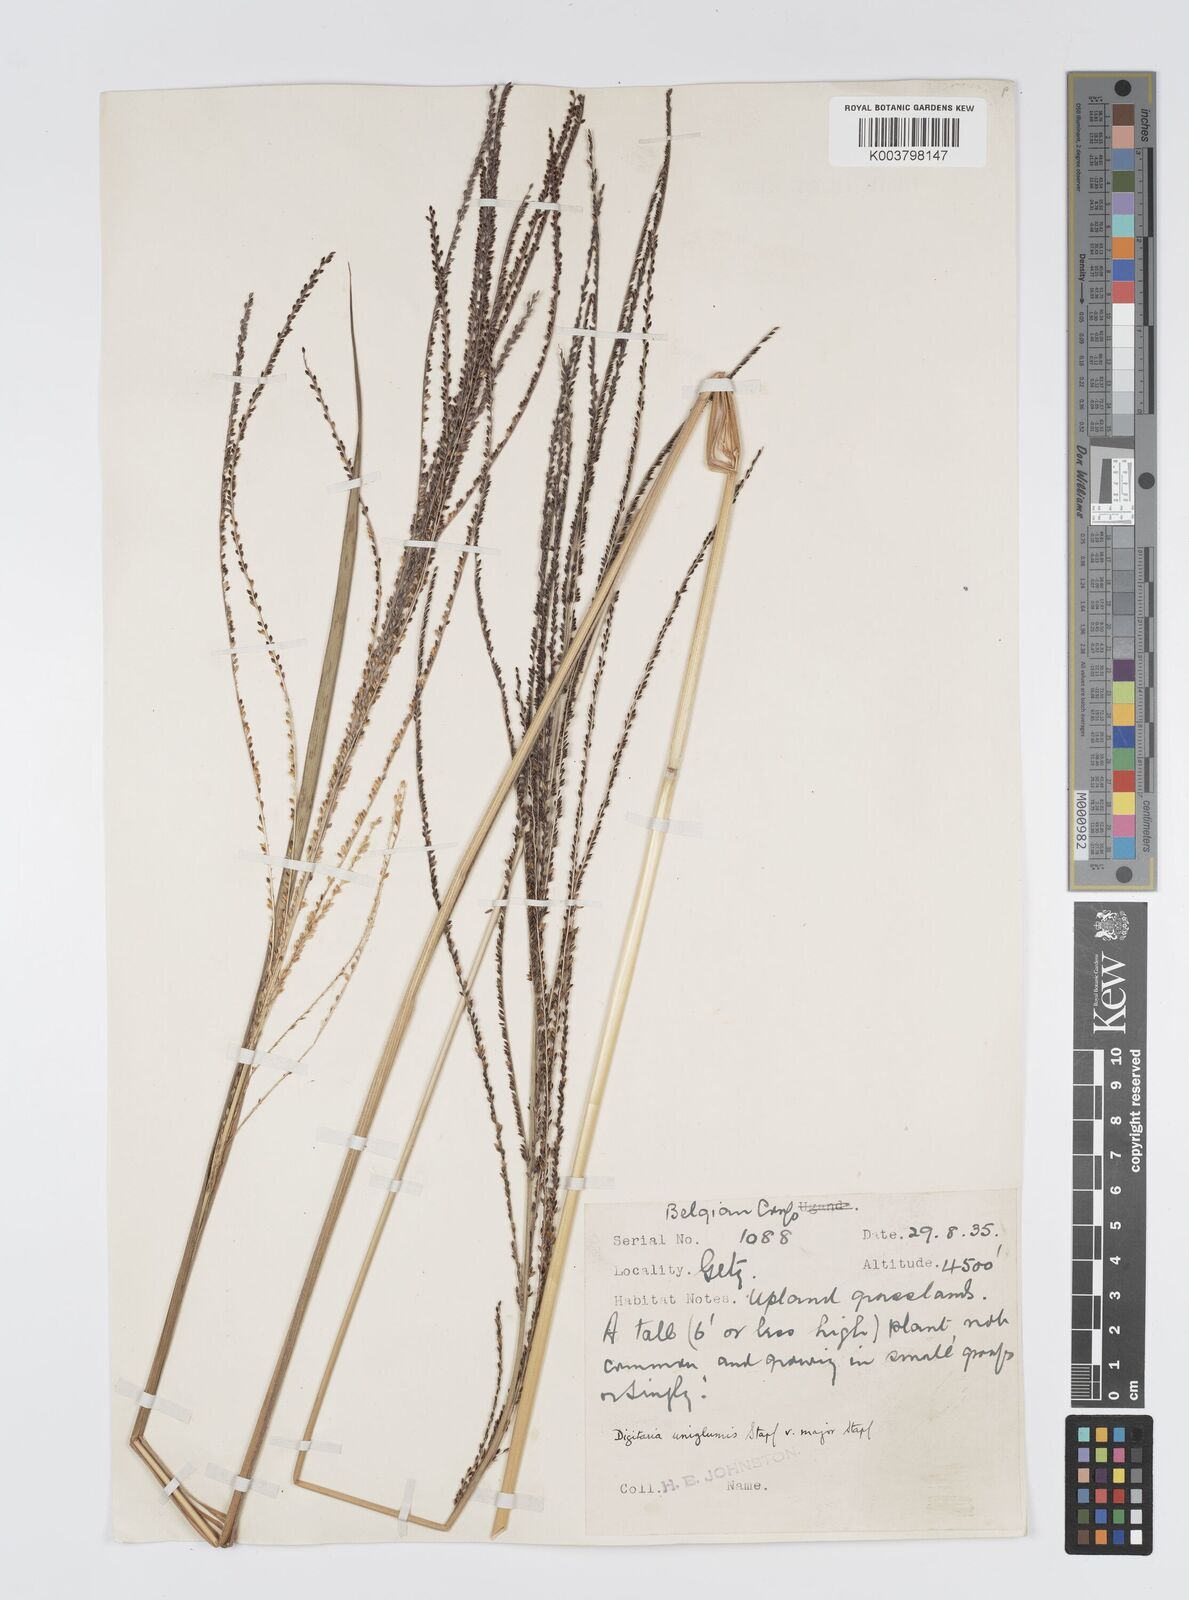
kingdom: Plantae
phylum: Tracheophyta
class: Liliopsida
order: Poales
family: Poaceae
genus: Digitaria
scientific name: Digitaria diagonalis
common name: Brown-seed finger grass
